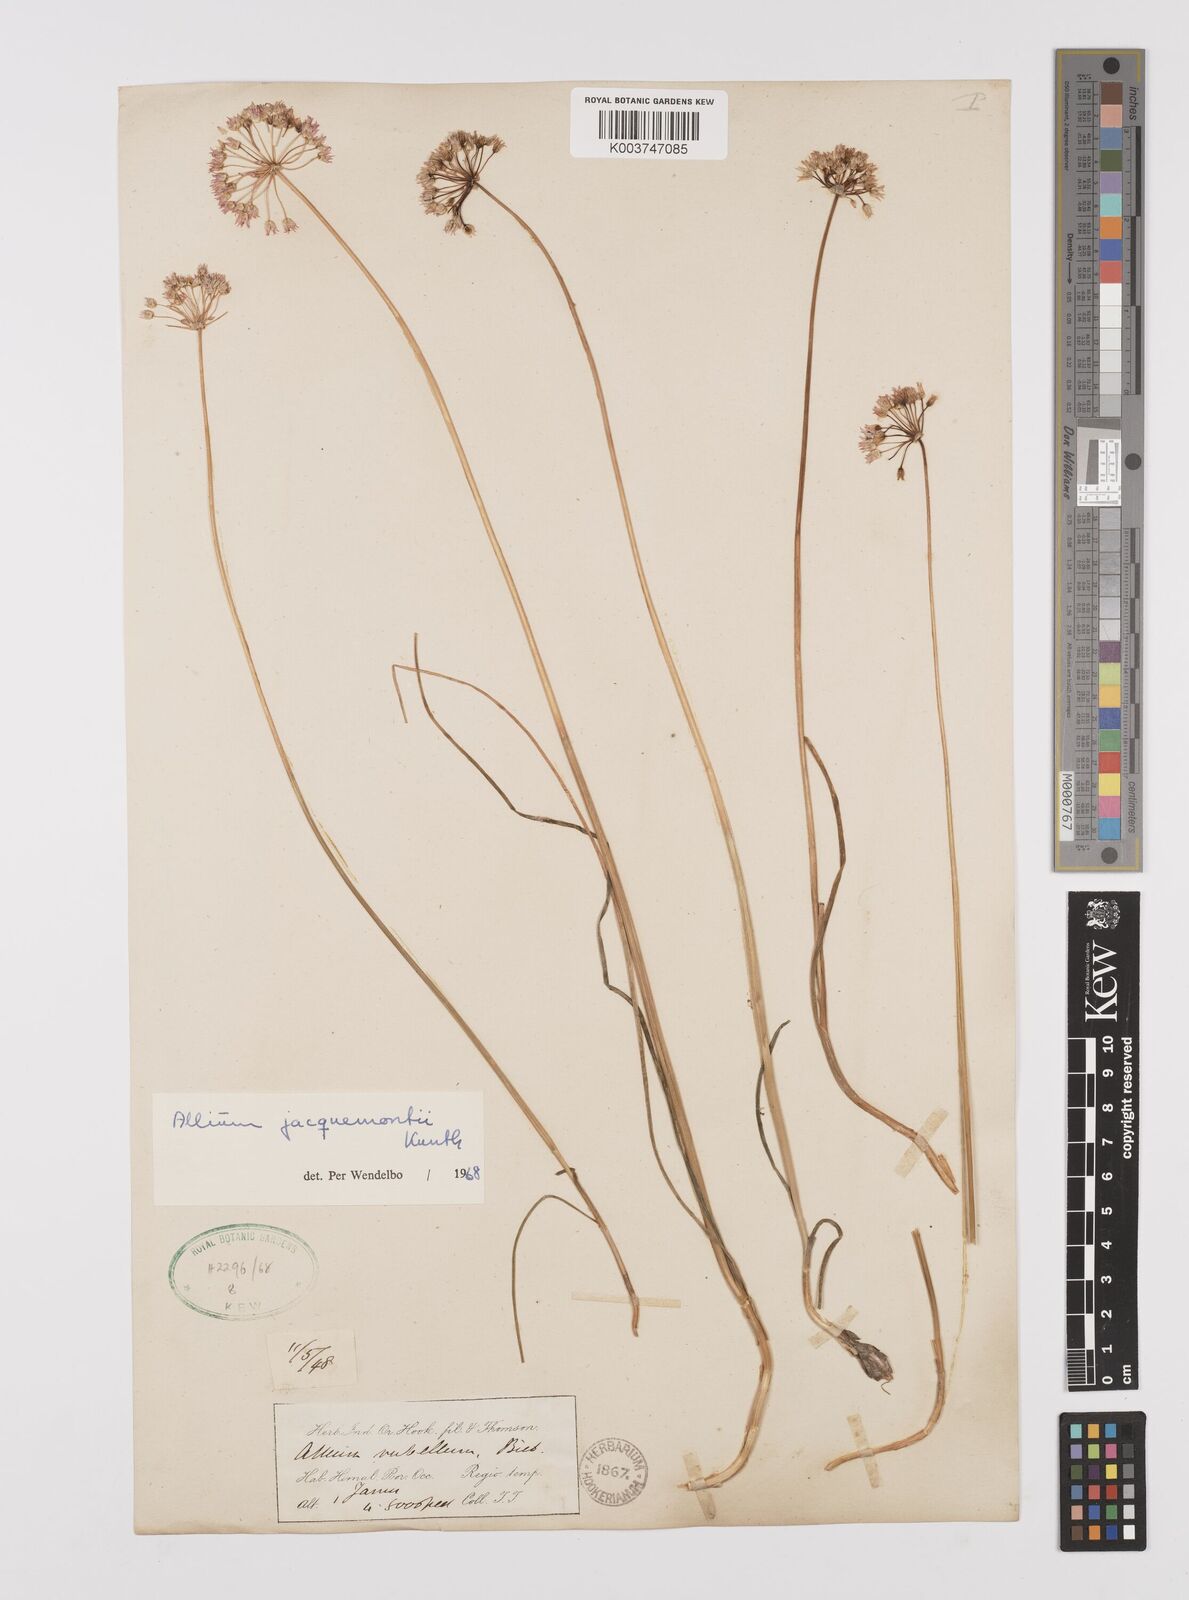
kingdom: Plantae
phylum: Tracheophyta
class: Liliopsida
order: Asparagales
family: Amaryllidaceae
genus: Allium
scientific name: Allium rubellum
